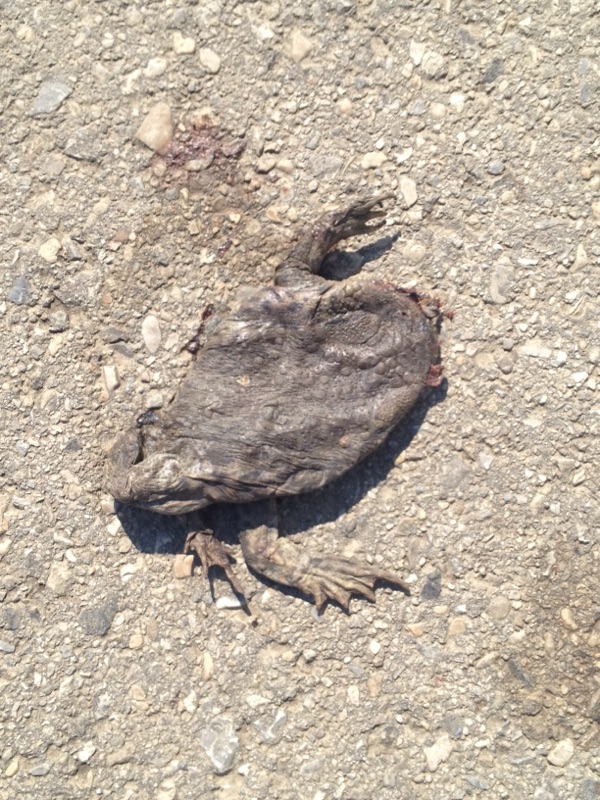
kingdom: Animalia
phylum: Chordata
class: Amphibia
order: Anura
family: Bufonidae
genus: Bufo
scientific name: Bufo bufo
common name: Common toad
